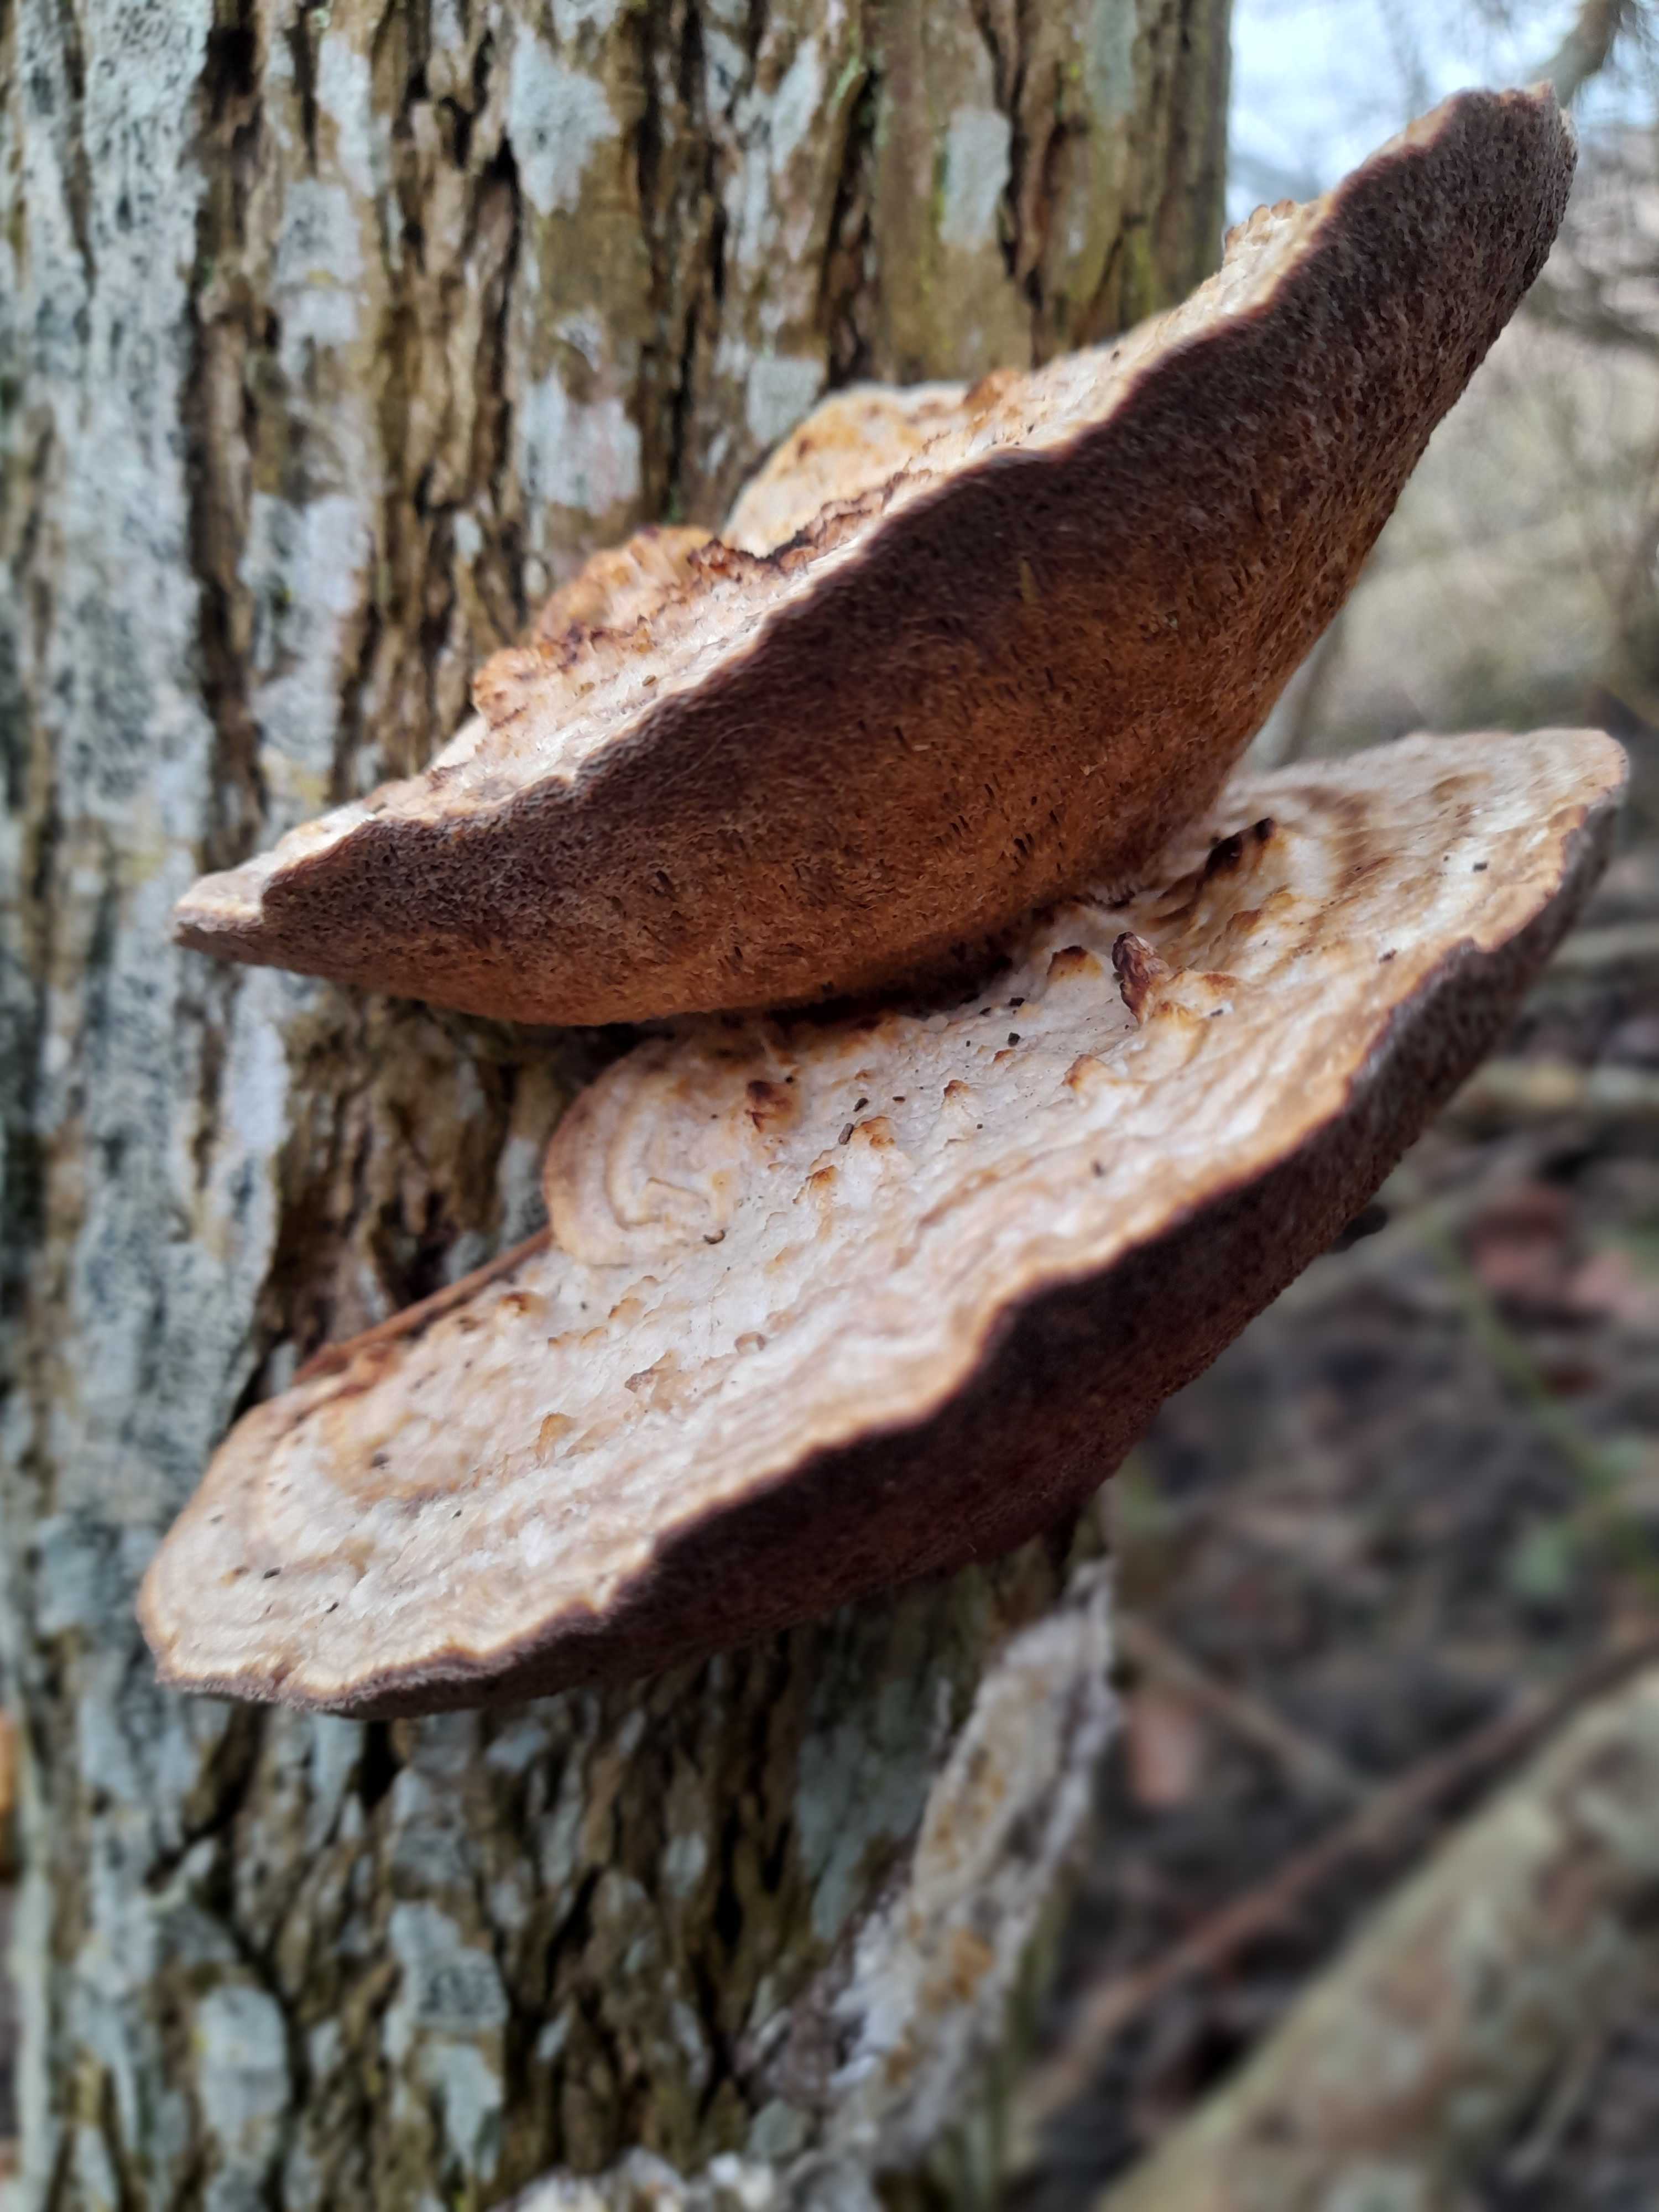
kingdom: Fungi
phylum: Basidiomycota
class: Agaricomycetes
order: Polyporales
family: Polyporaceae
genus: Daedaleopsis
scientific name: Daedaleopsis confragosa
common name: rødmende læderporesvamp
